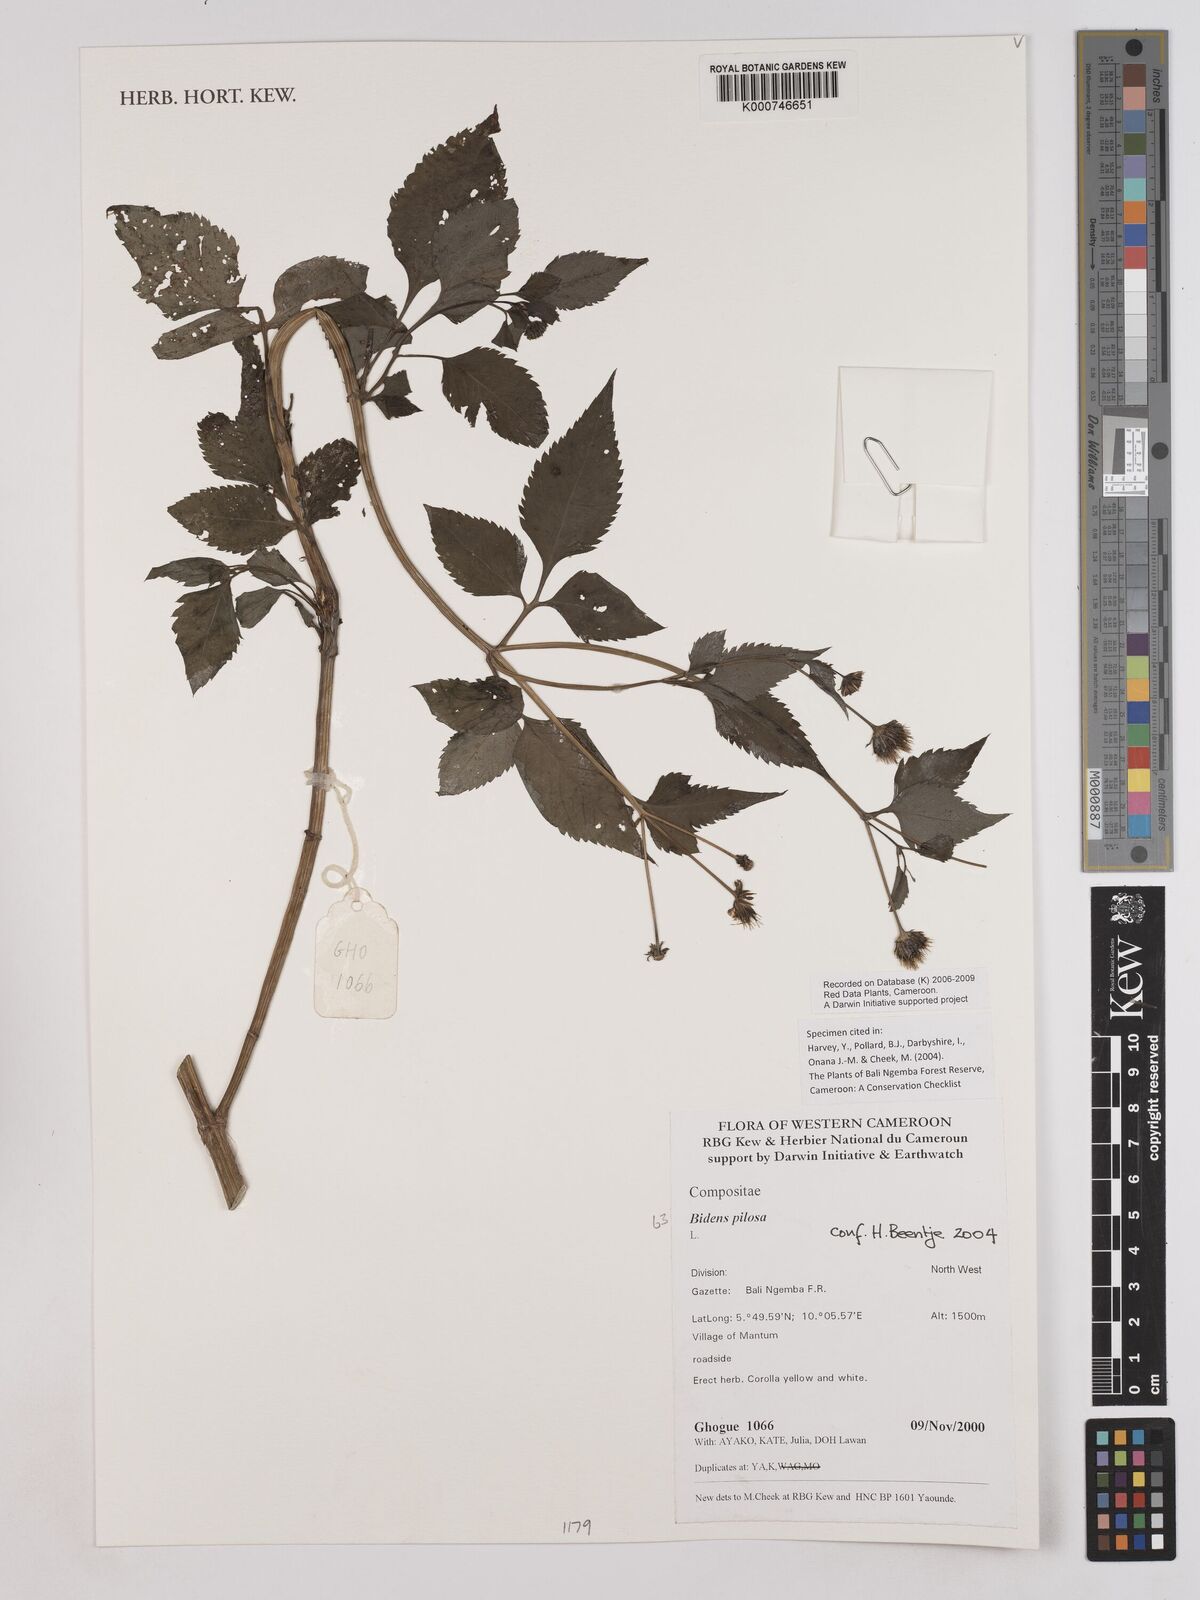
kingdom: Plantae
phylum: Tracheophyta
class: Magnoliopsida
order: Asterales
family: Asteraceae
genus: Bidens
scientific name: Bidens pilosa
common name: Black-jack
